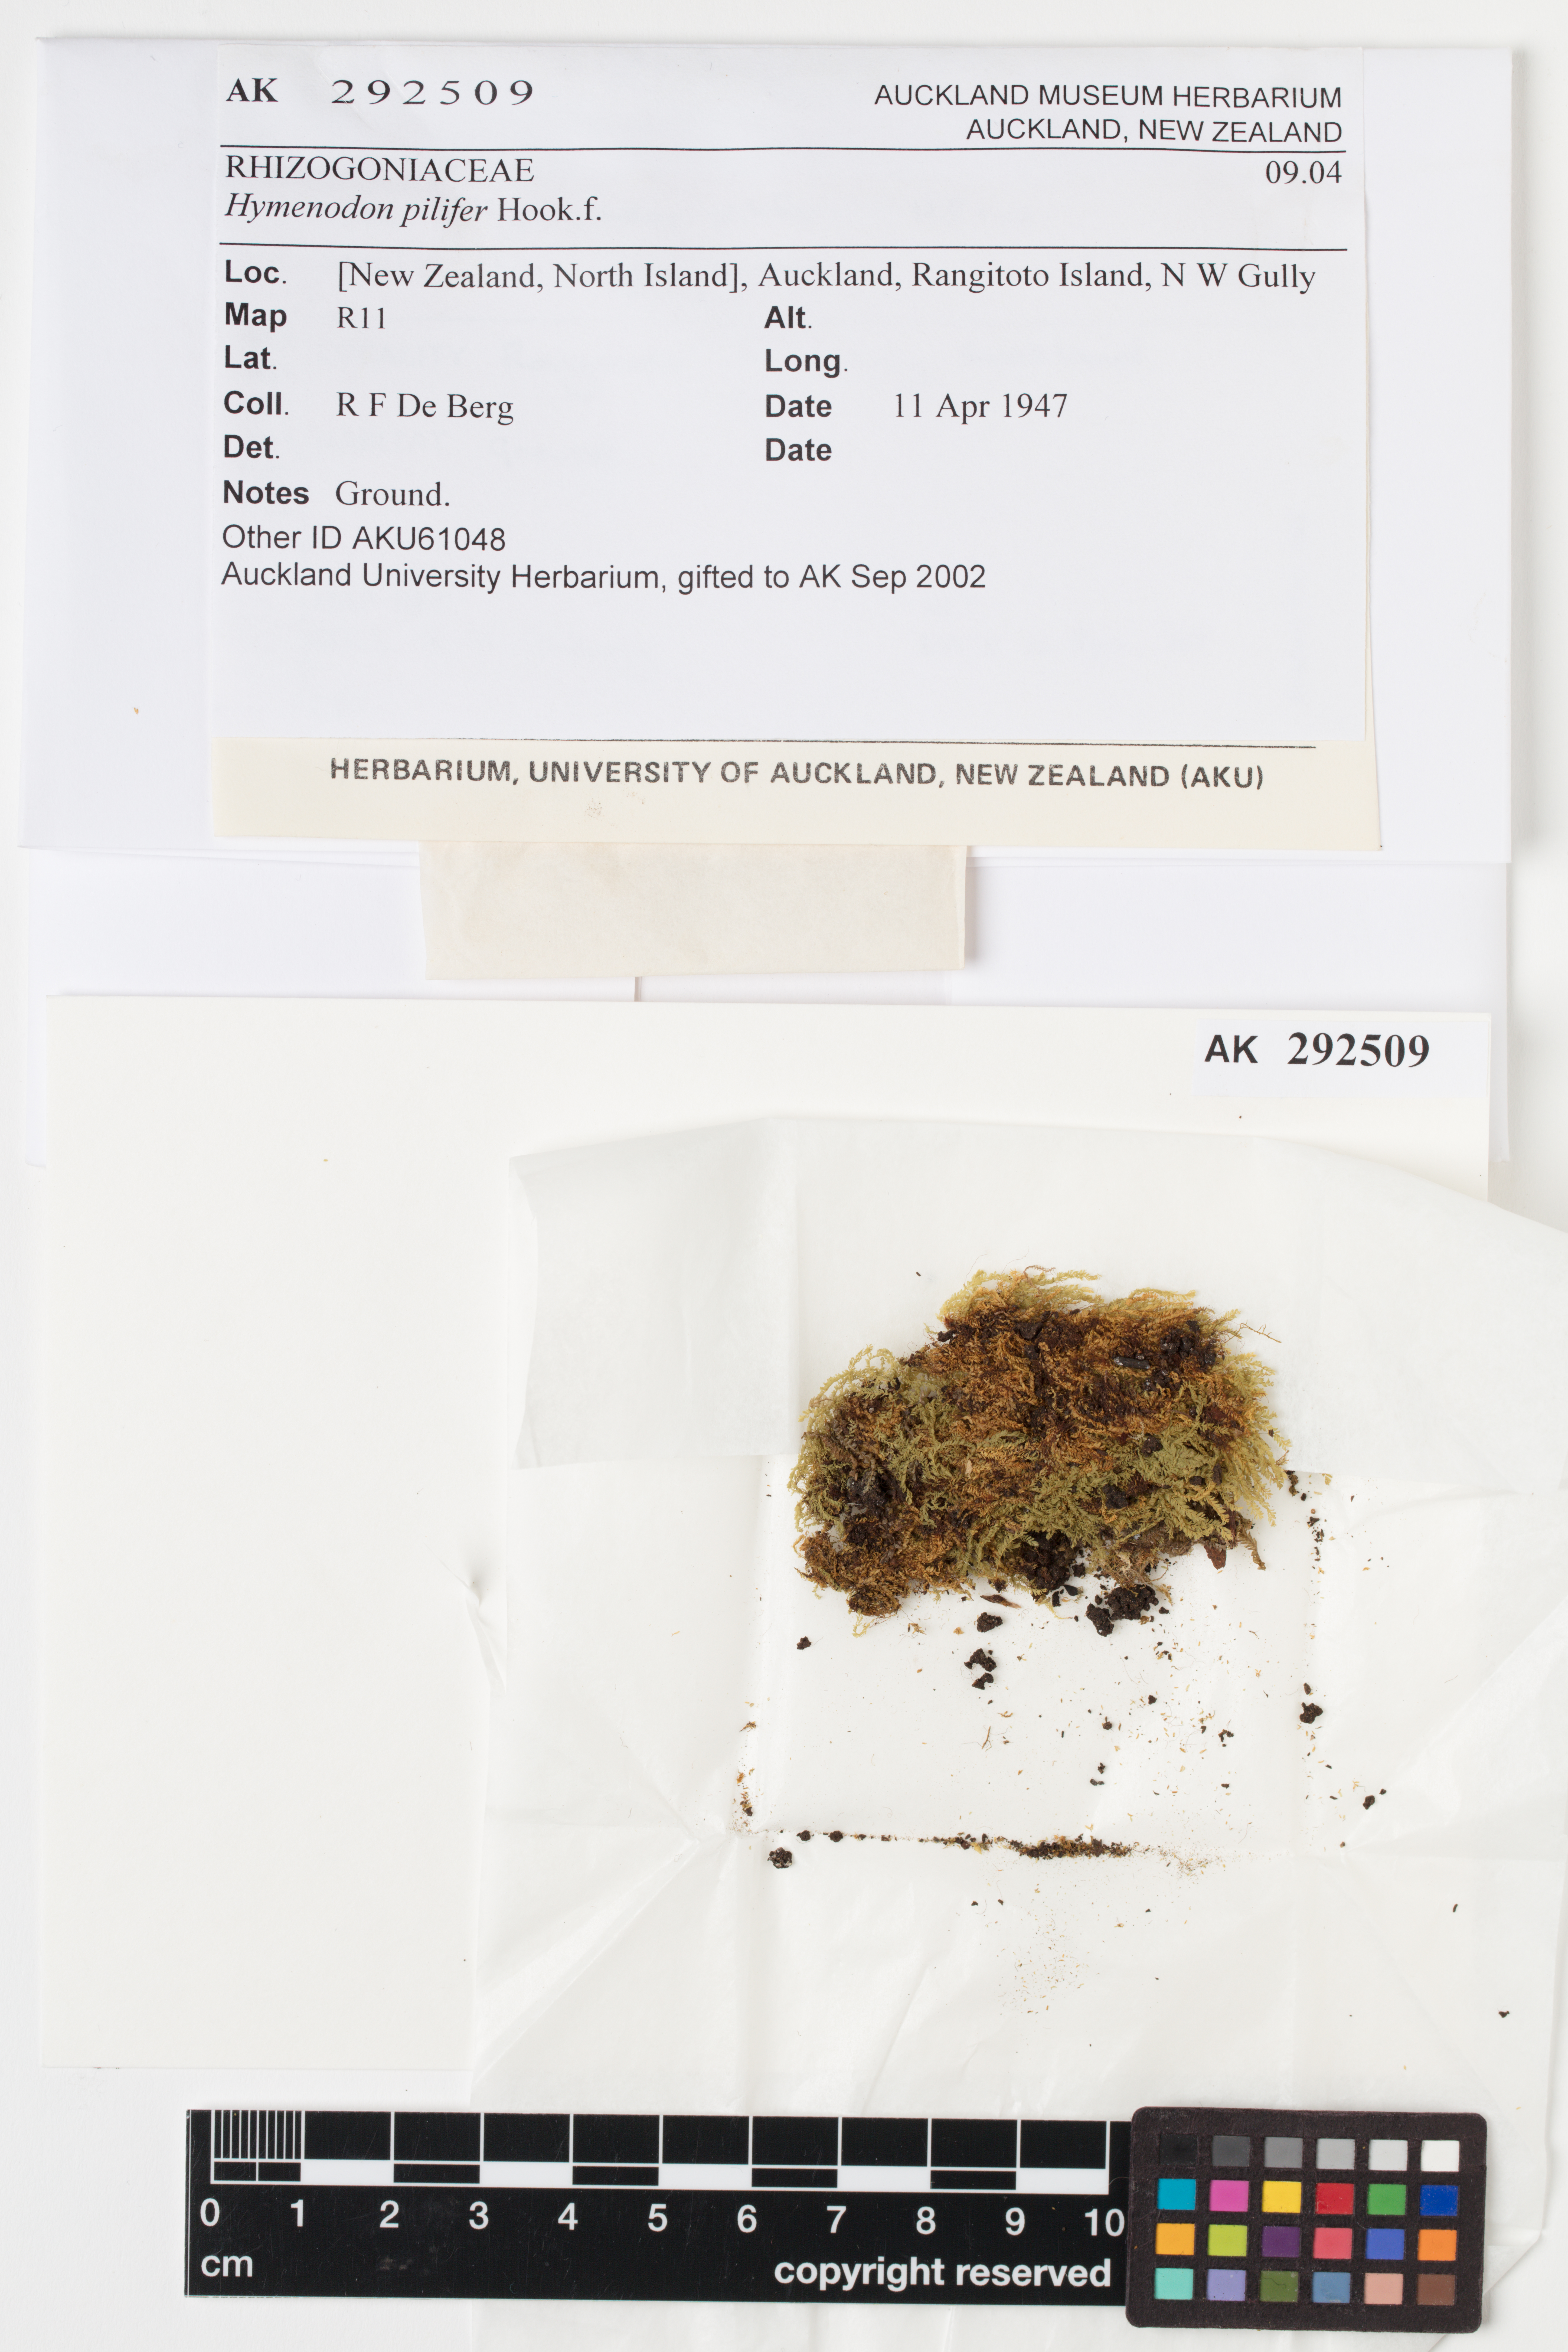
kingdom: Plantae
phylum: Bryophyta
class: Bryopsida
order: Orthodontiales
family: Orthodontiaceae
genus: Hymenodon
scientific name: Hymenodon pilifer
